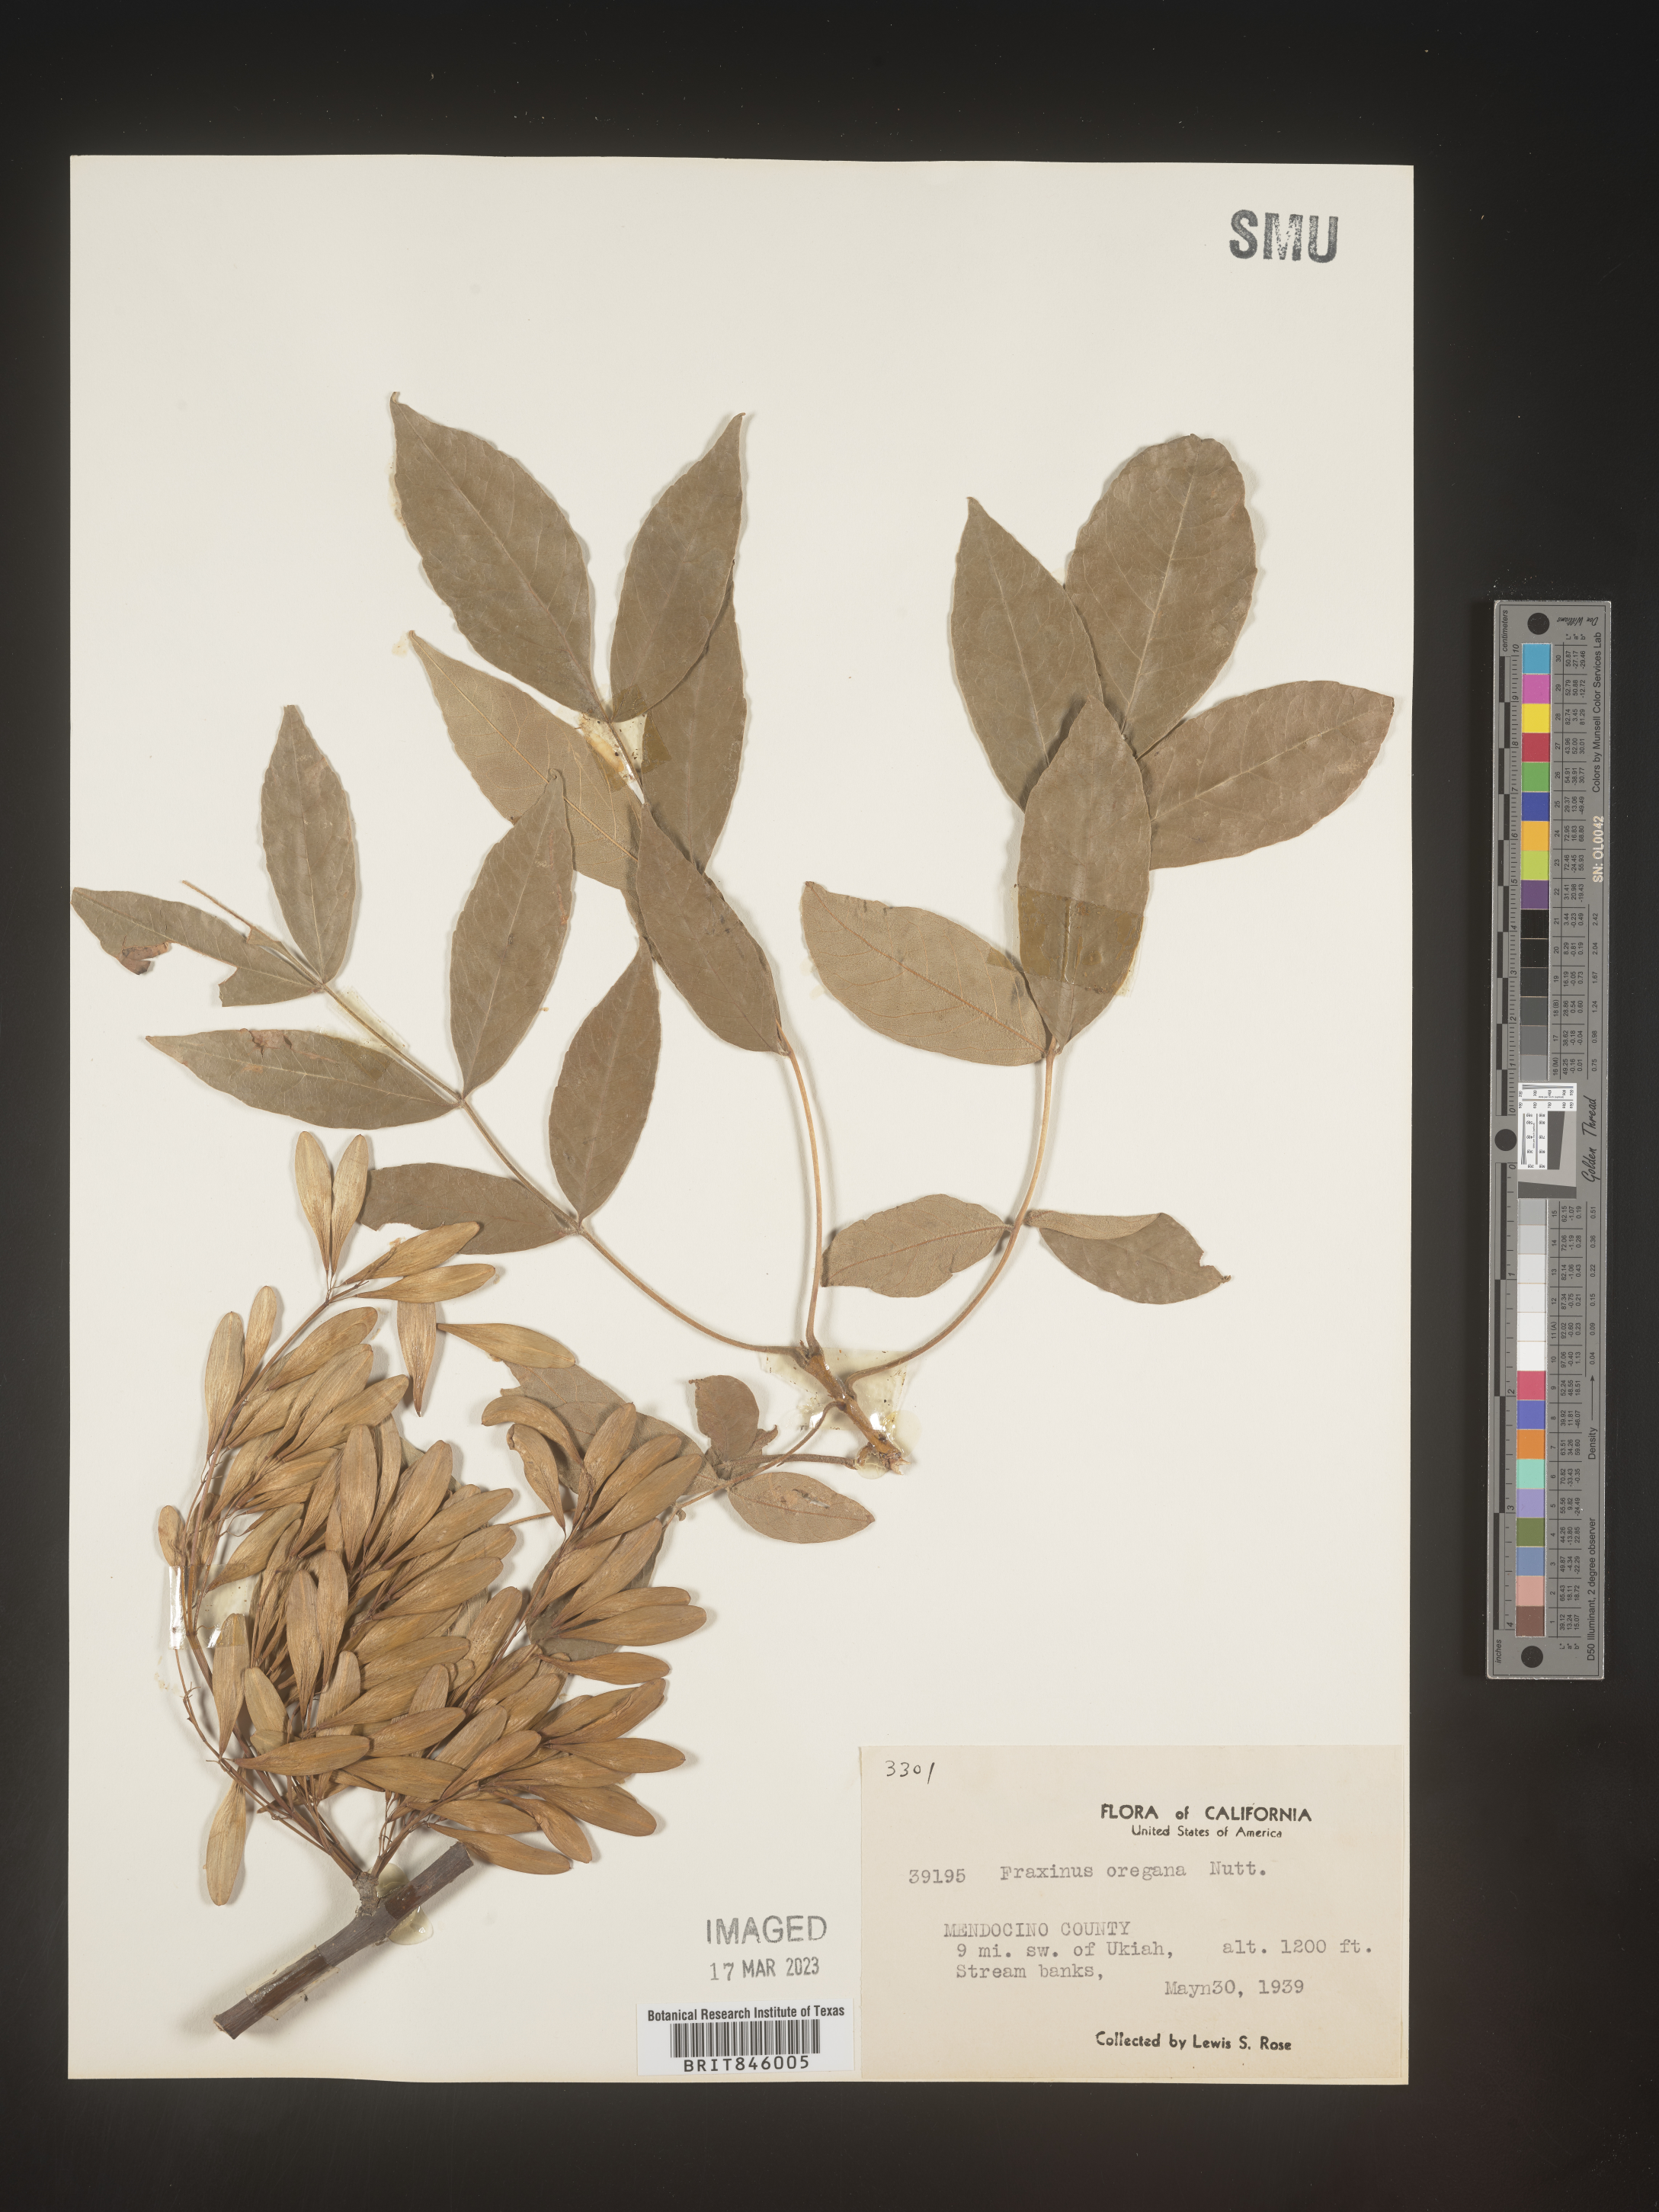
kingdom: Plantae
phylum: Tracheophyta
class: Magnoliopsida
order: Lamiales
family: Oleaceae
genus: Fraxinus
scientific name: Fraxinus latifolia
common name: Oregon ash
